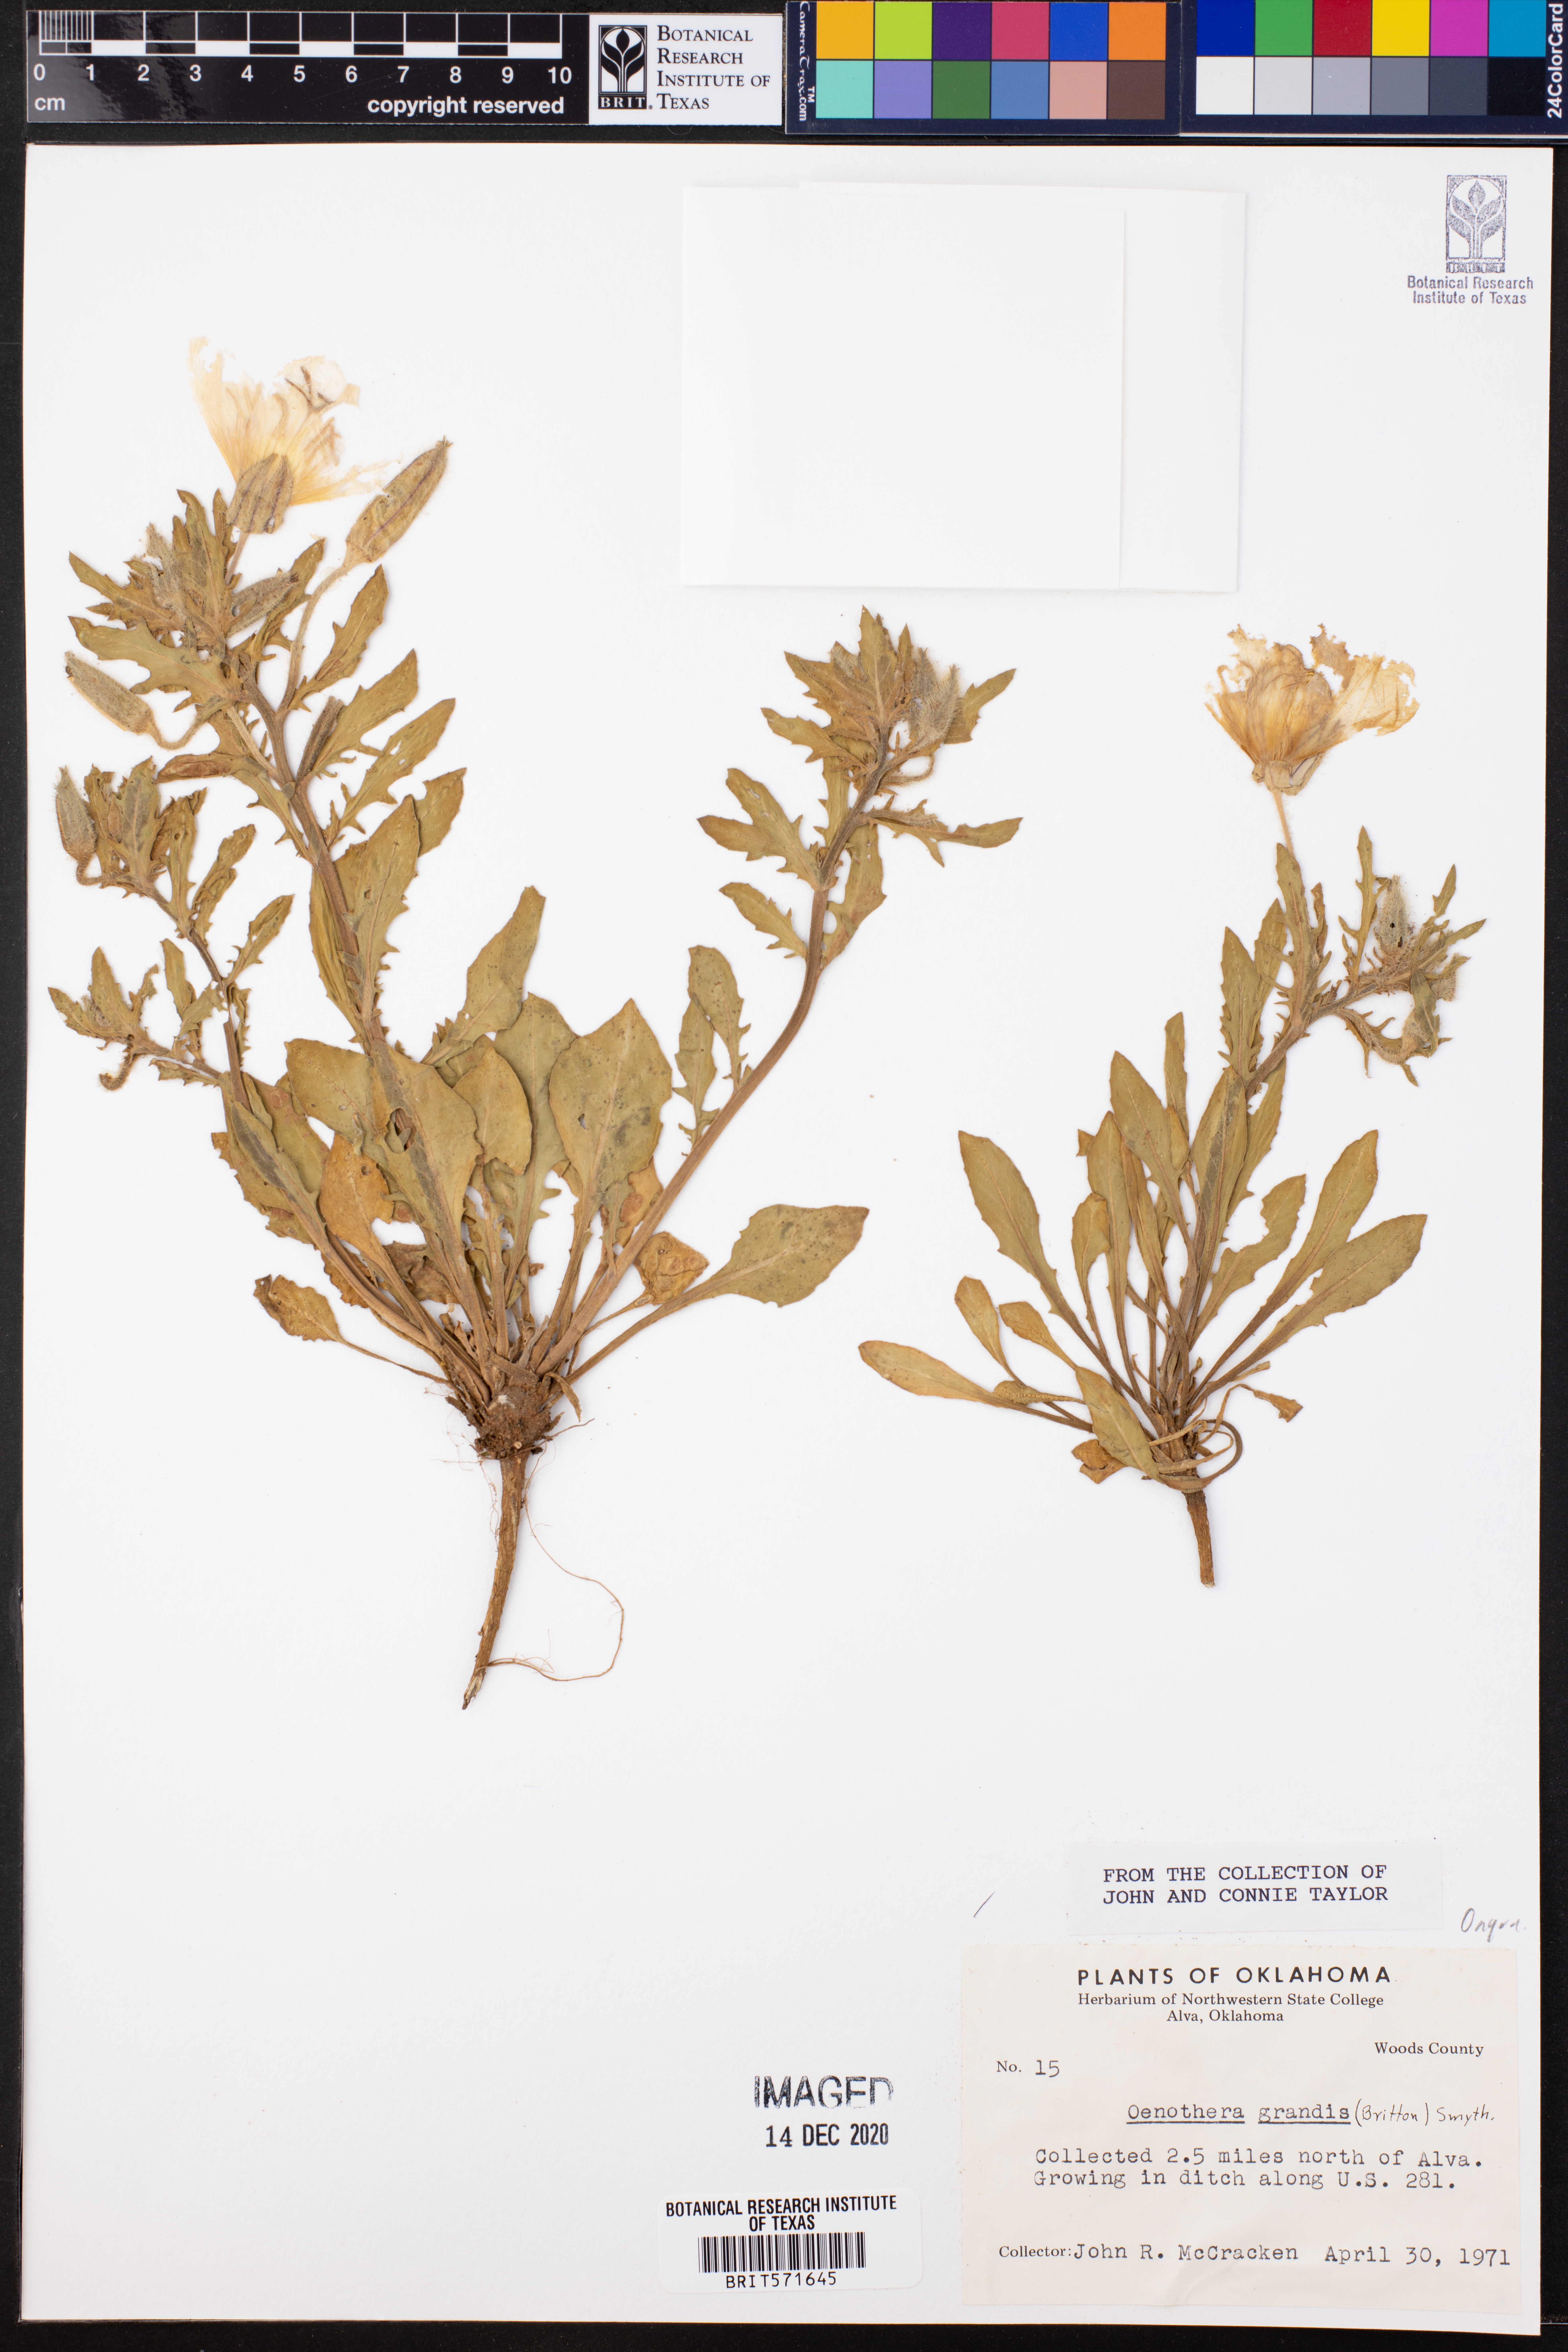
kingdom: Plantae
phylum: Tracheophyta
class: Magnoliopsida
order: Myrtales
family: Onagraceae
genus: Oenothera
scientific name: Oenothera grandis
